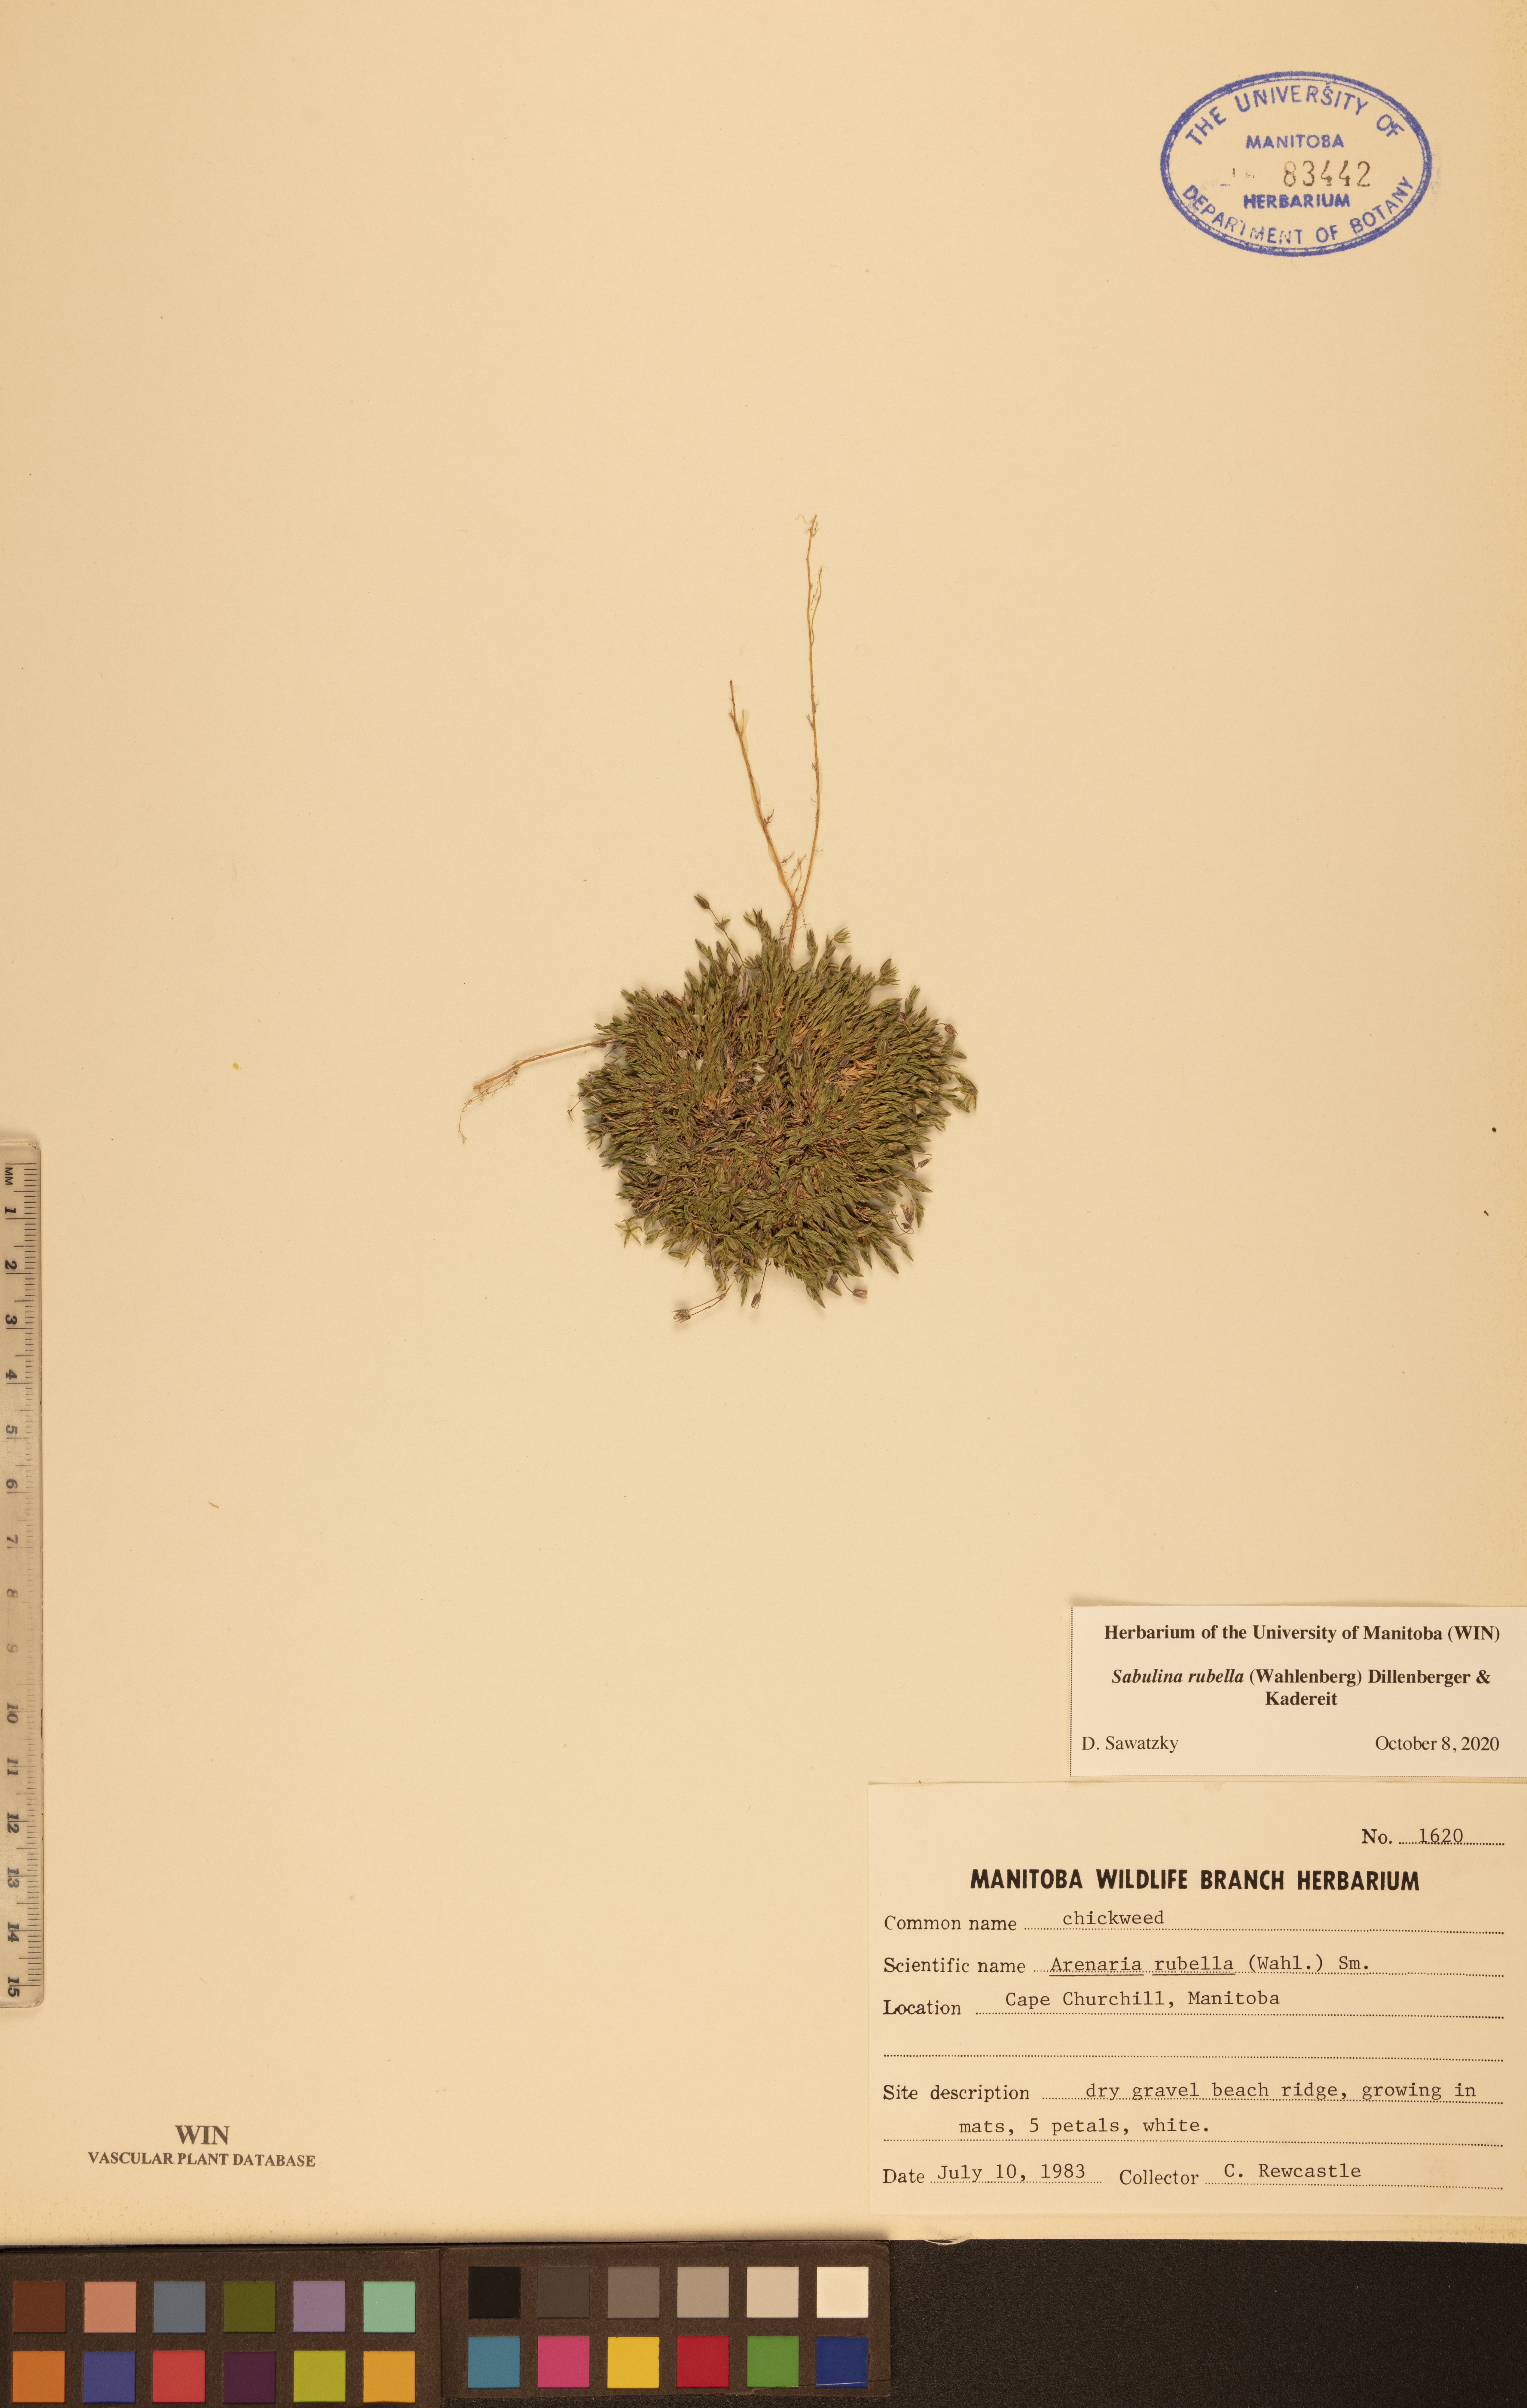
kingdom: Plantae
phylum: Tracheophyta
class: Magnoliopsida
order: Caryophyllales
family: Caryophyllaceae
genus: Sabulina
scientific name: Sabulina rubella
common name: Beautiful sandwort
